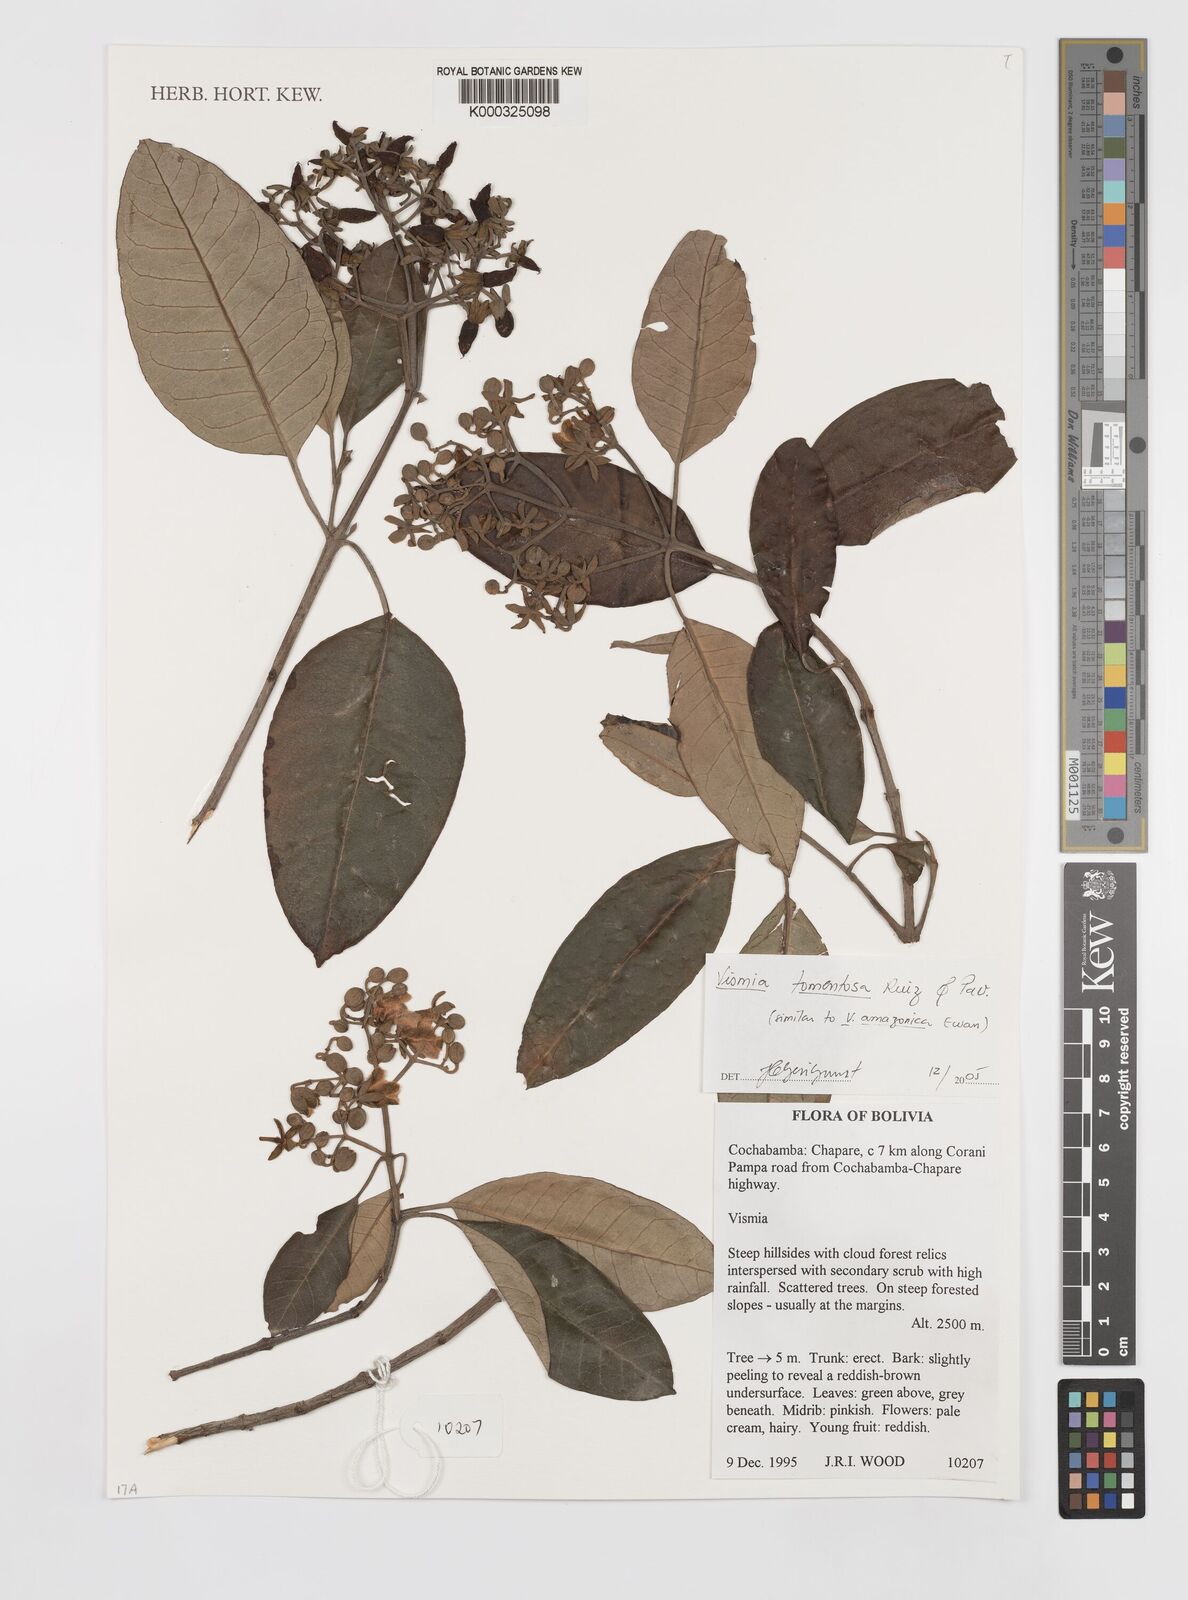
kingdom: Plantae
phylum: Tracheophyta
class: Magnoliopsida
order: Malpighiales
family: Hypericaceae
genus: Vismia
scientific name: Vismia tomentosa
